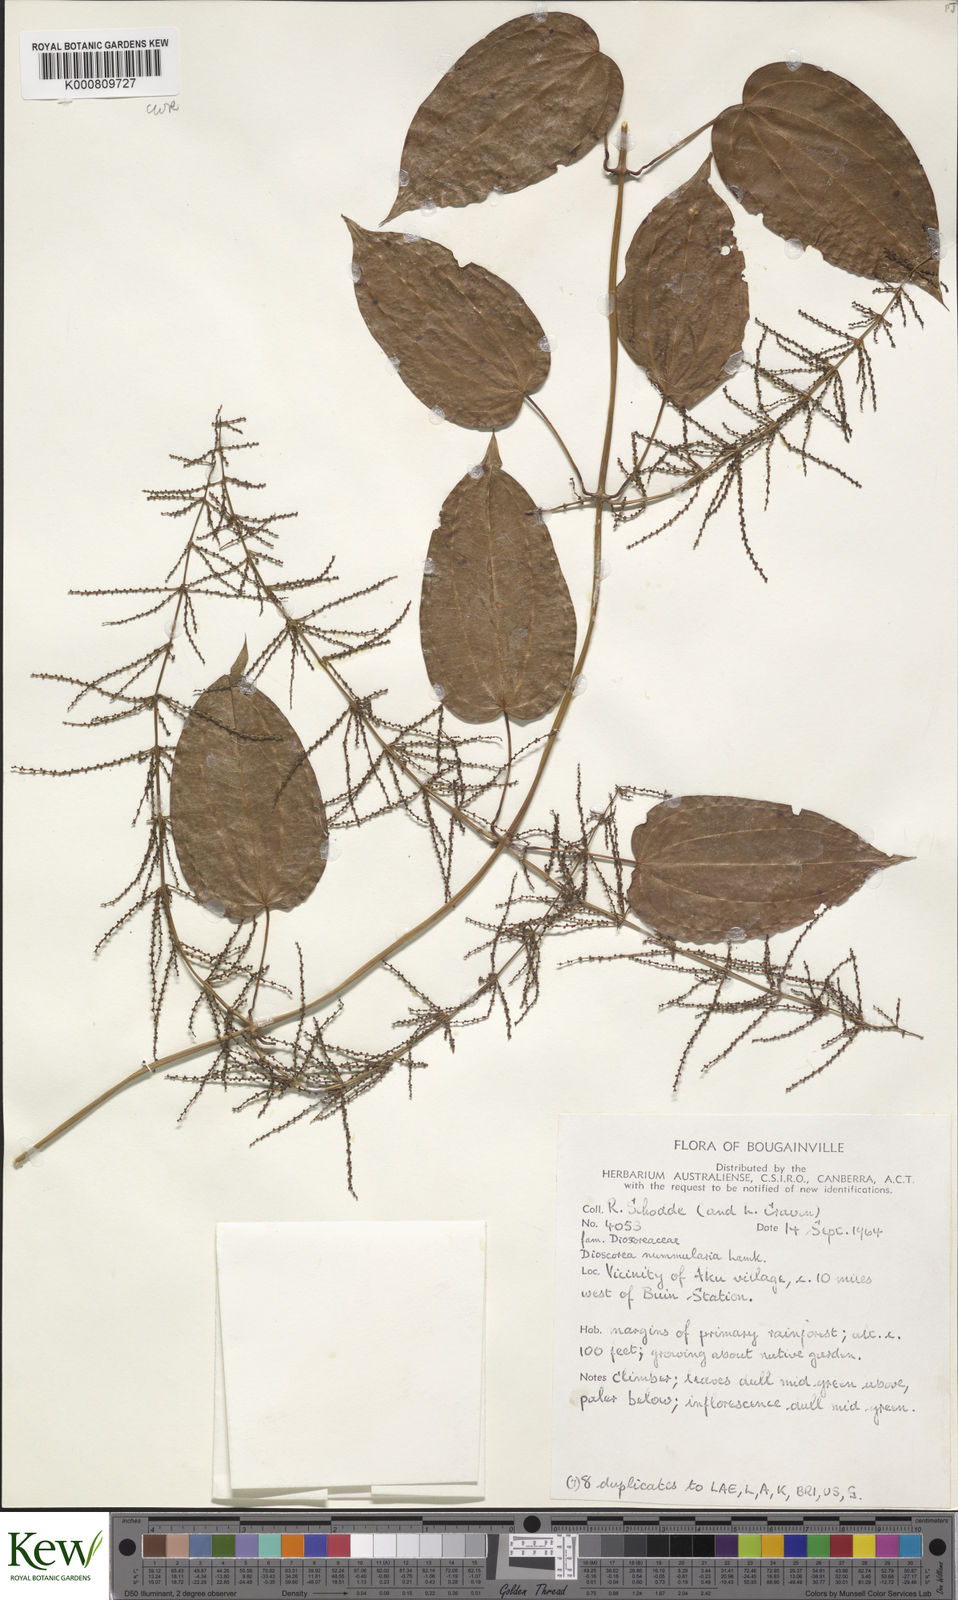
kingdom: Plantae
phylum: Tracheophyta
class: Liliopsida
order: Dioscoreales
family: Dioscoreaceae
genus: Dioscorea
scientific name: Dioscorea nummularia
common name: Pacific yam
